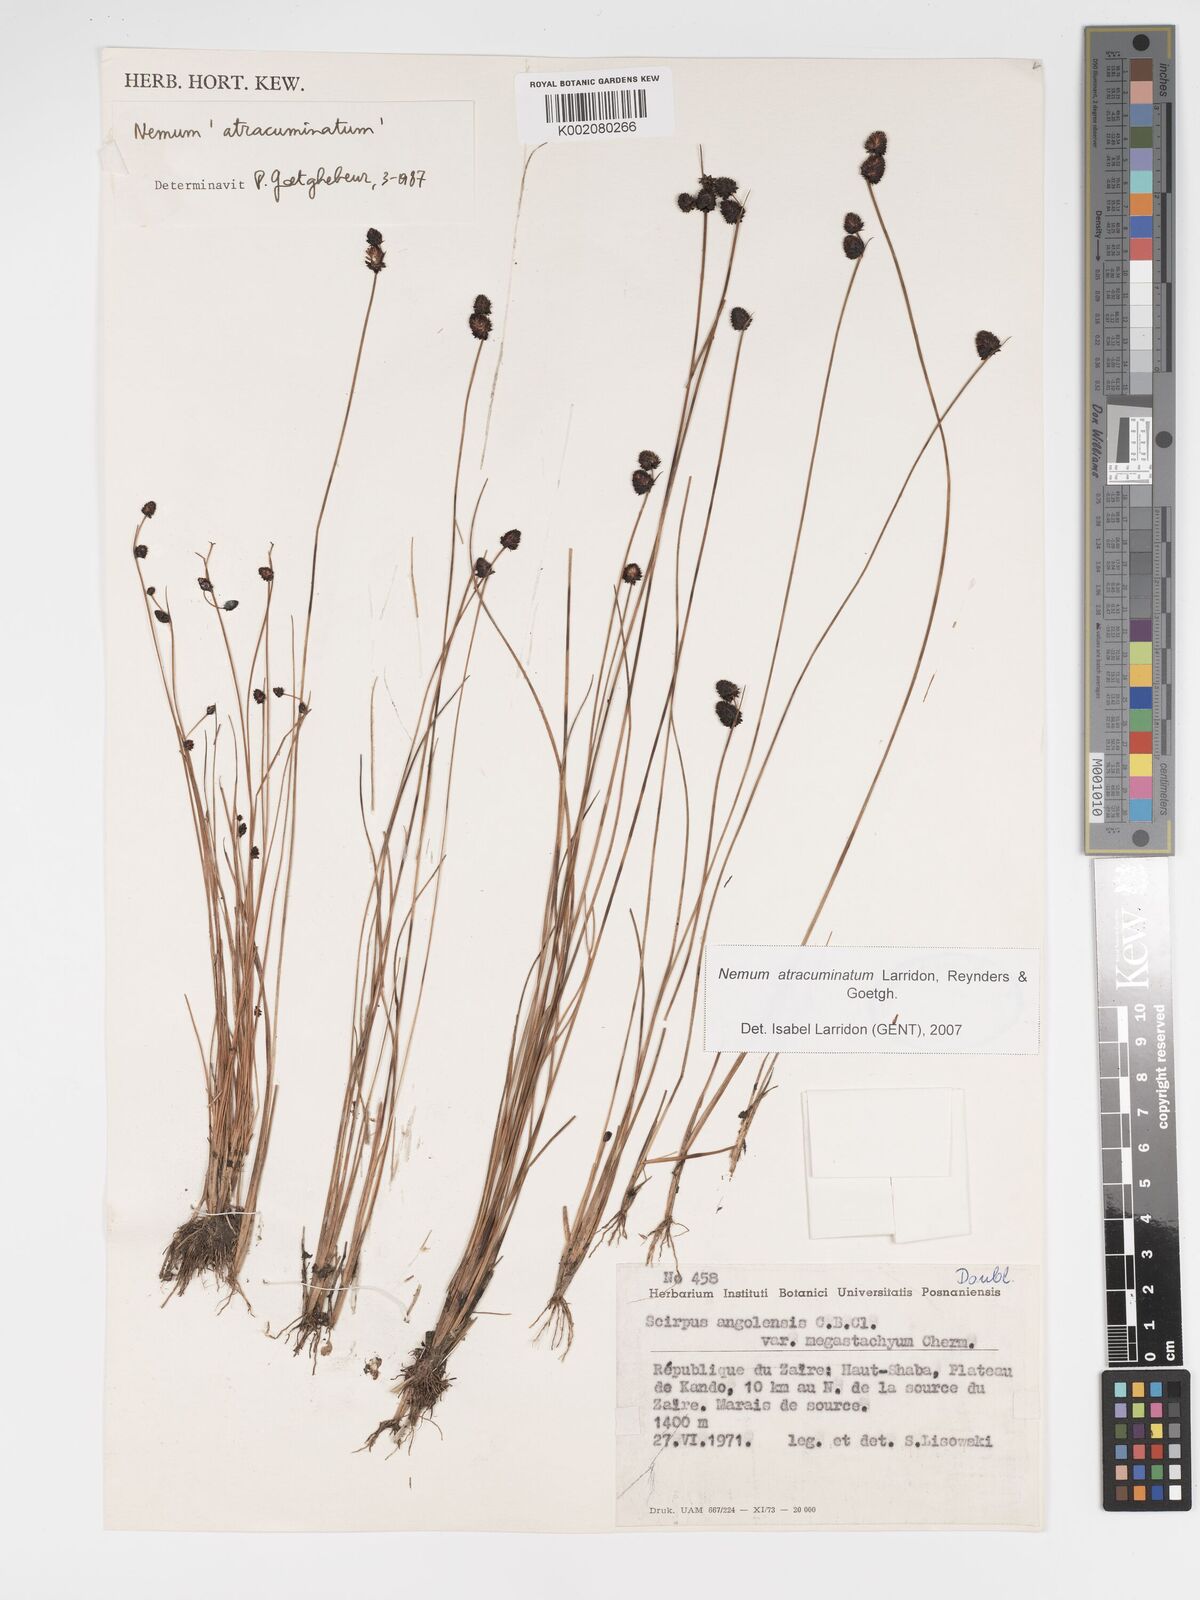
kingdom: Plantae
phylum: Tracheophyta
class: Liliopsida
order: Poales
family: Cyperaceae
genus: Bulbostylis
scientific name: Bulbostylis atracuminata
